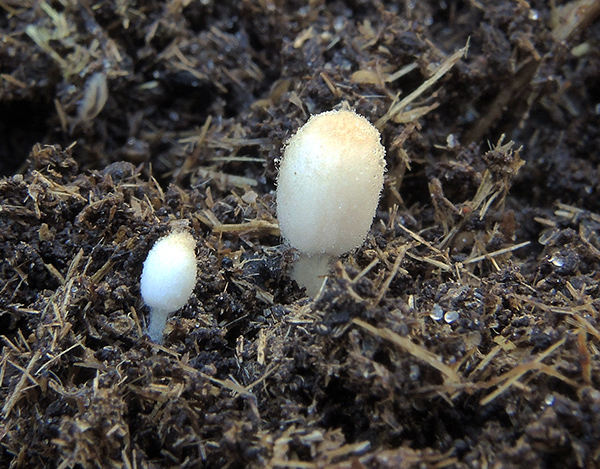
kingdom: Fungi
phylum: Basidiomycota
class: Agaricomycetes
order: Agaricales
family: Psathyrellaceae
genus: Coprinopsis
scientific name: Coprinopsis pseudocortinata
